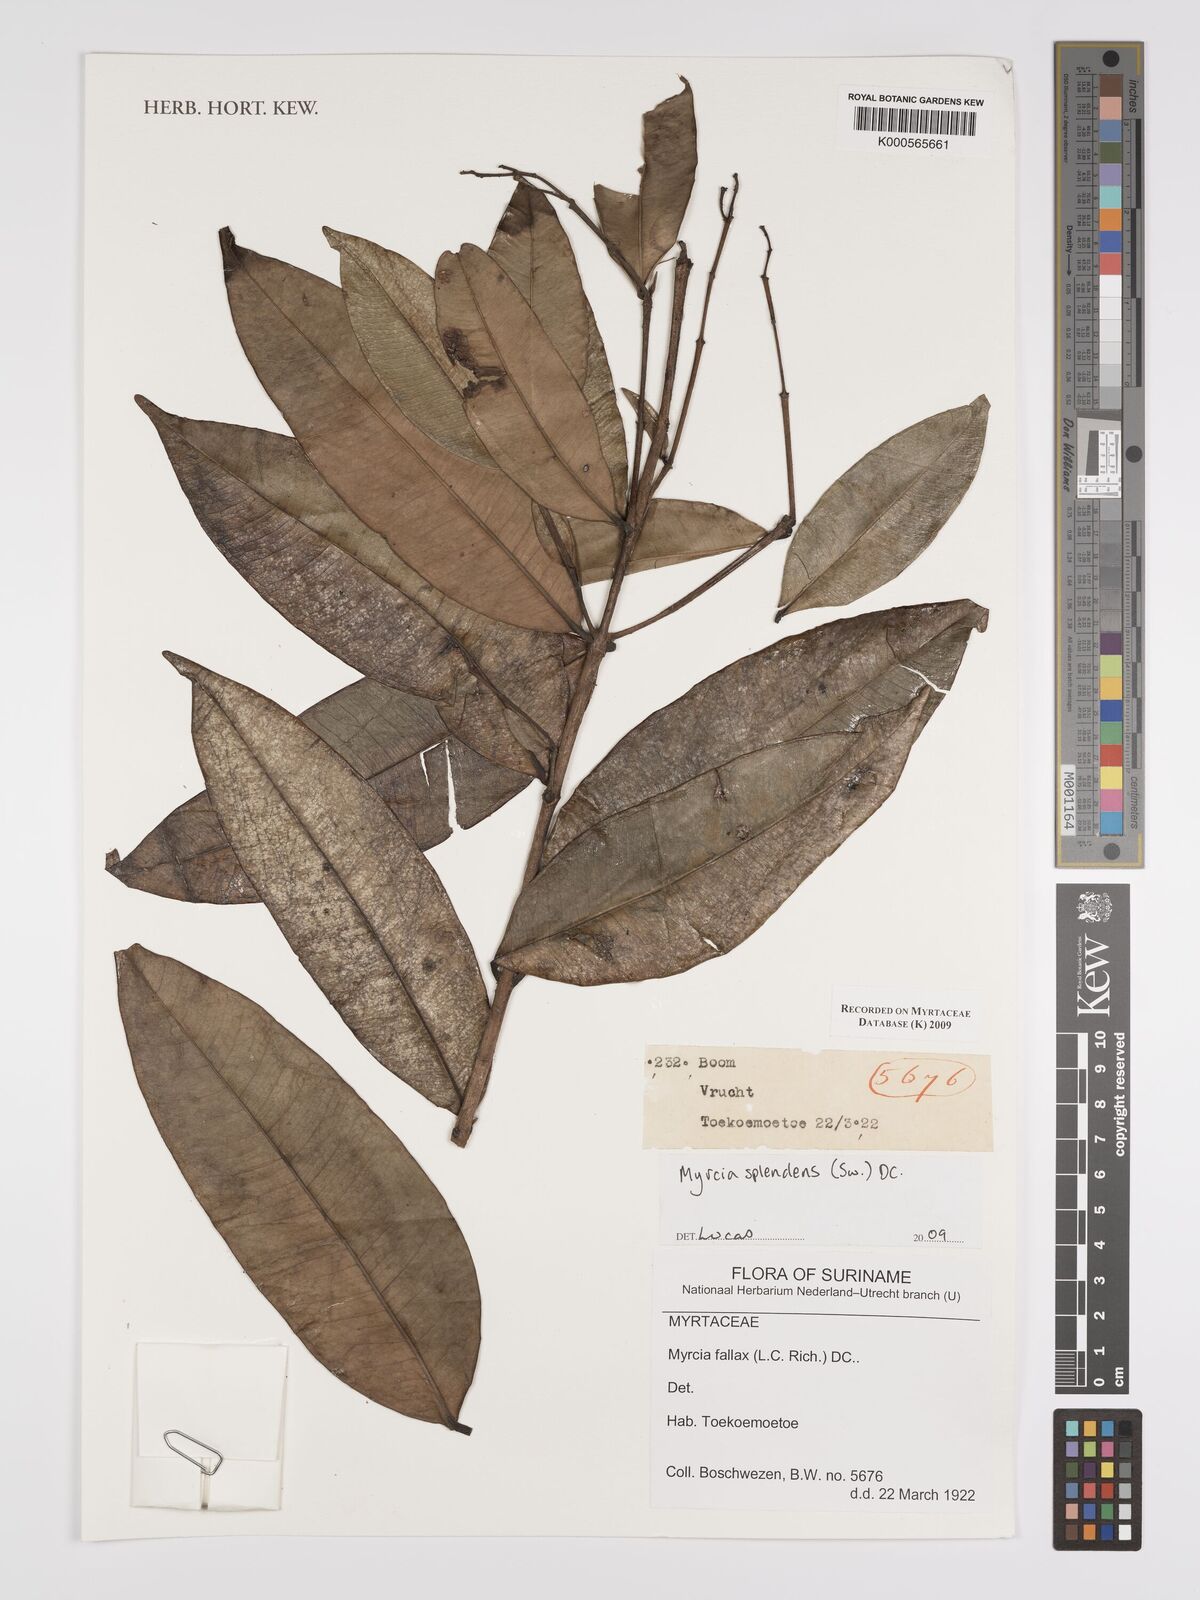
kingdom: Plantae
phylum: Tracheophyta
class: Magnoliopsida
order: Myrtales
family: Myrtaceae
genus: Myrcia
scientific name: Myrcia splendens
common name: Surinam cherry
